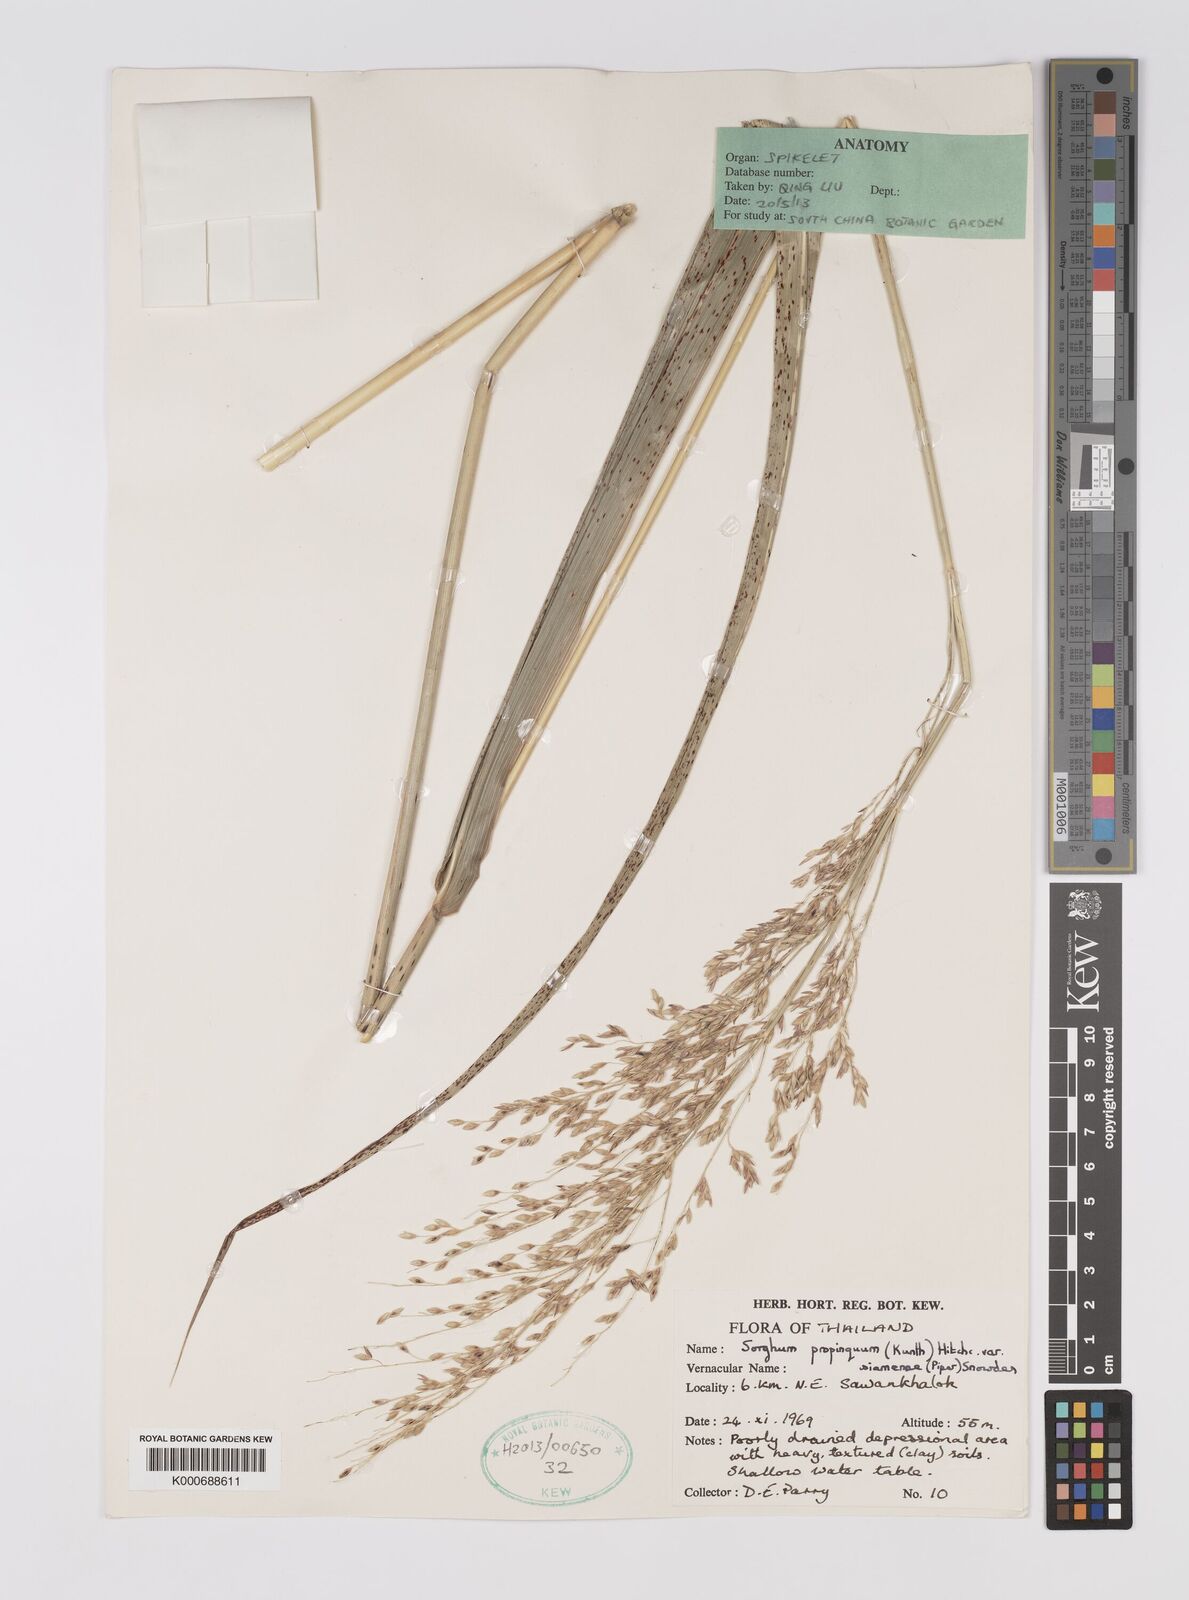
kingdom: Plantae
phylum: Tracheophyta
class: Liliopsida
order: Poales
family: Poaceae
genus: Sorghum
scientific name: Sorghum propinquum
